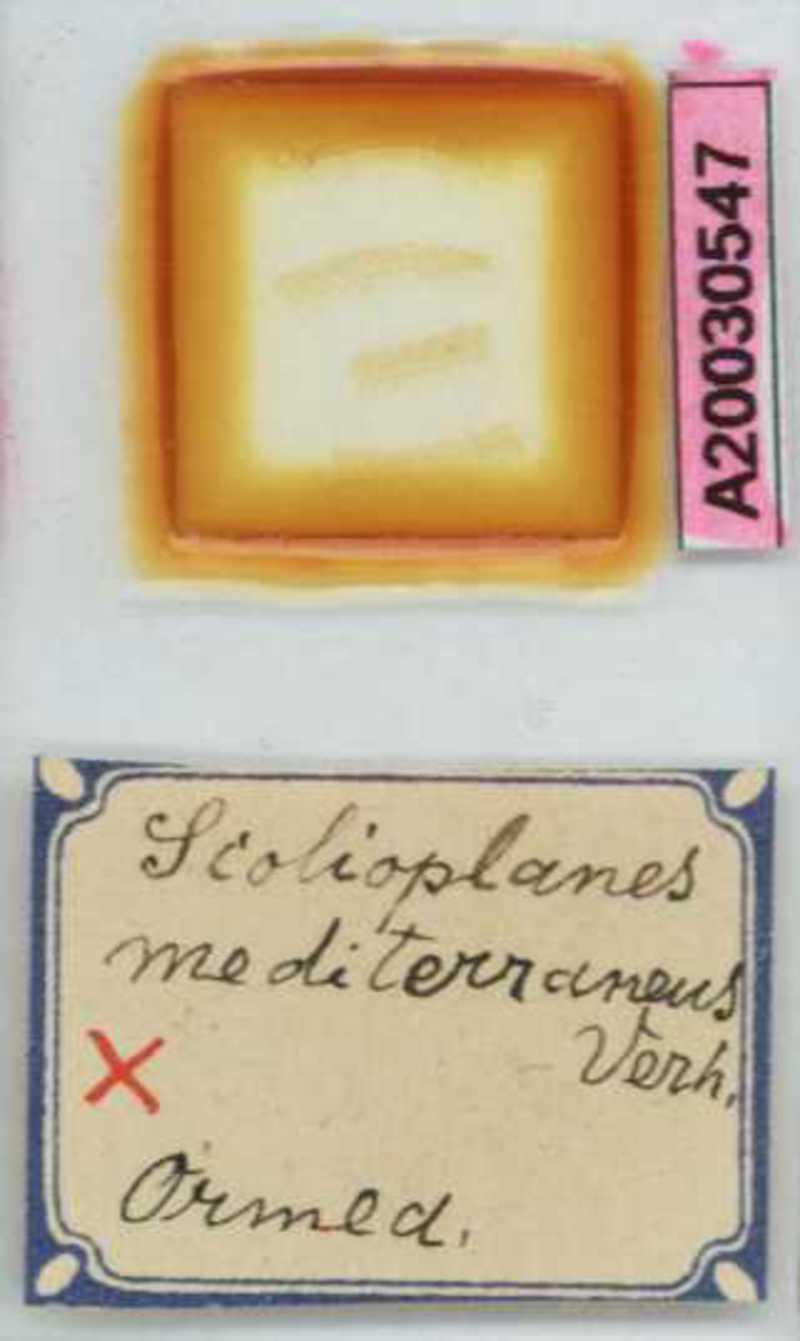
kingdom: Animalia
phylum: Arthropoda
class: Chilopoda
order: Geophilomorpha
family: Linotaeniidae
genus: Strigamia
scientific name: Strigamia crassipes
